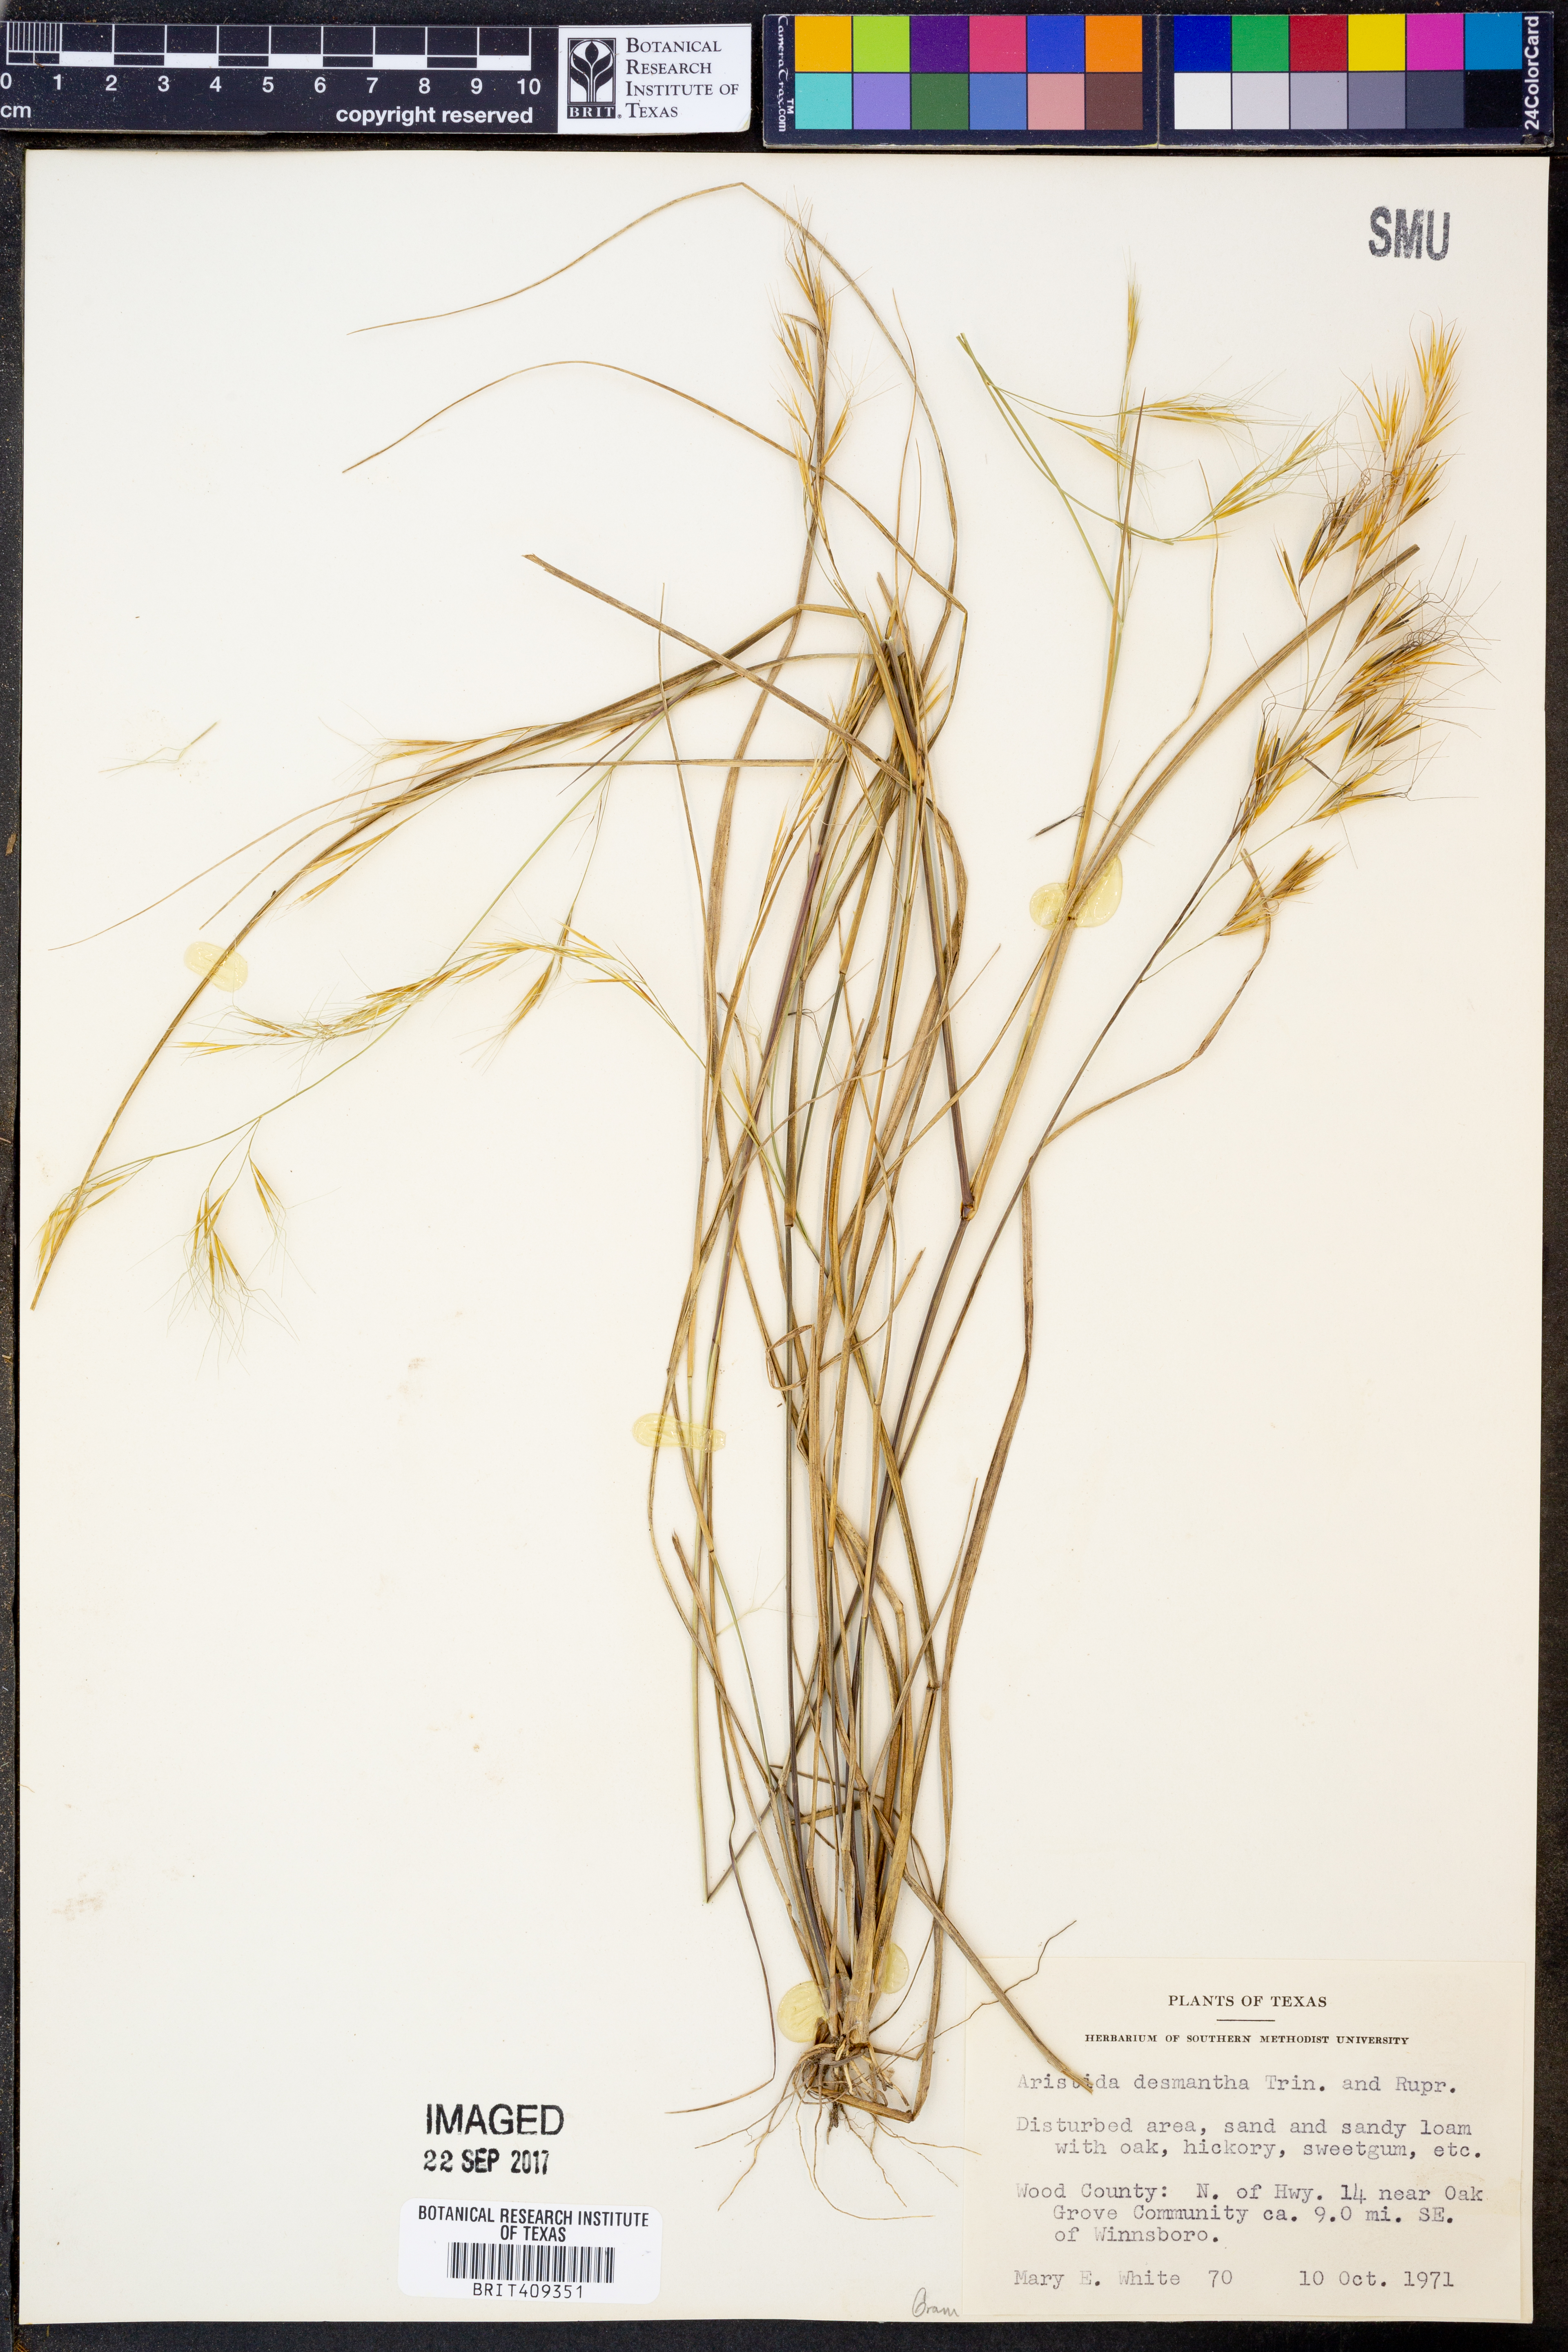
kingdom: Plantae
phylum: Tracheophyta
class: Liliopsida
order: Poales
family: Poaceae
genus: Aristida
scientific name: Aristida desmantha
